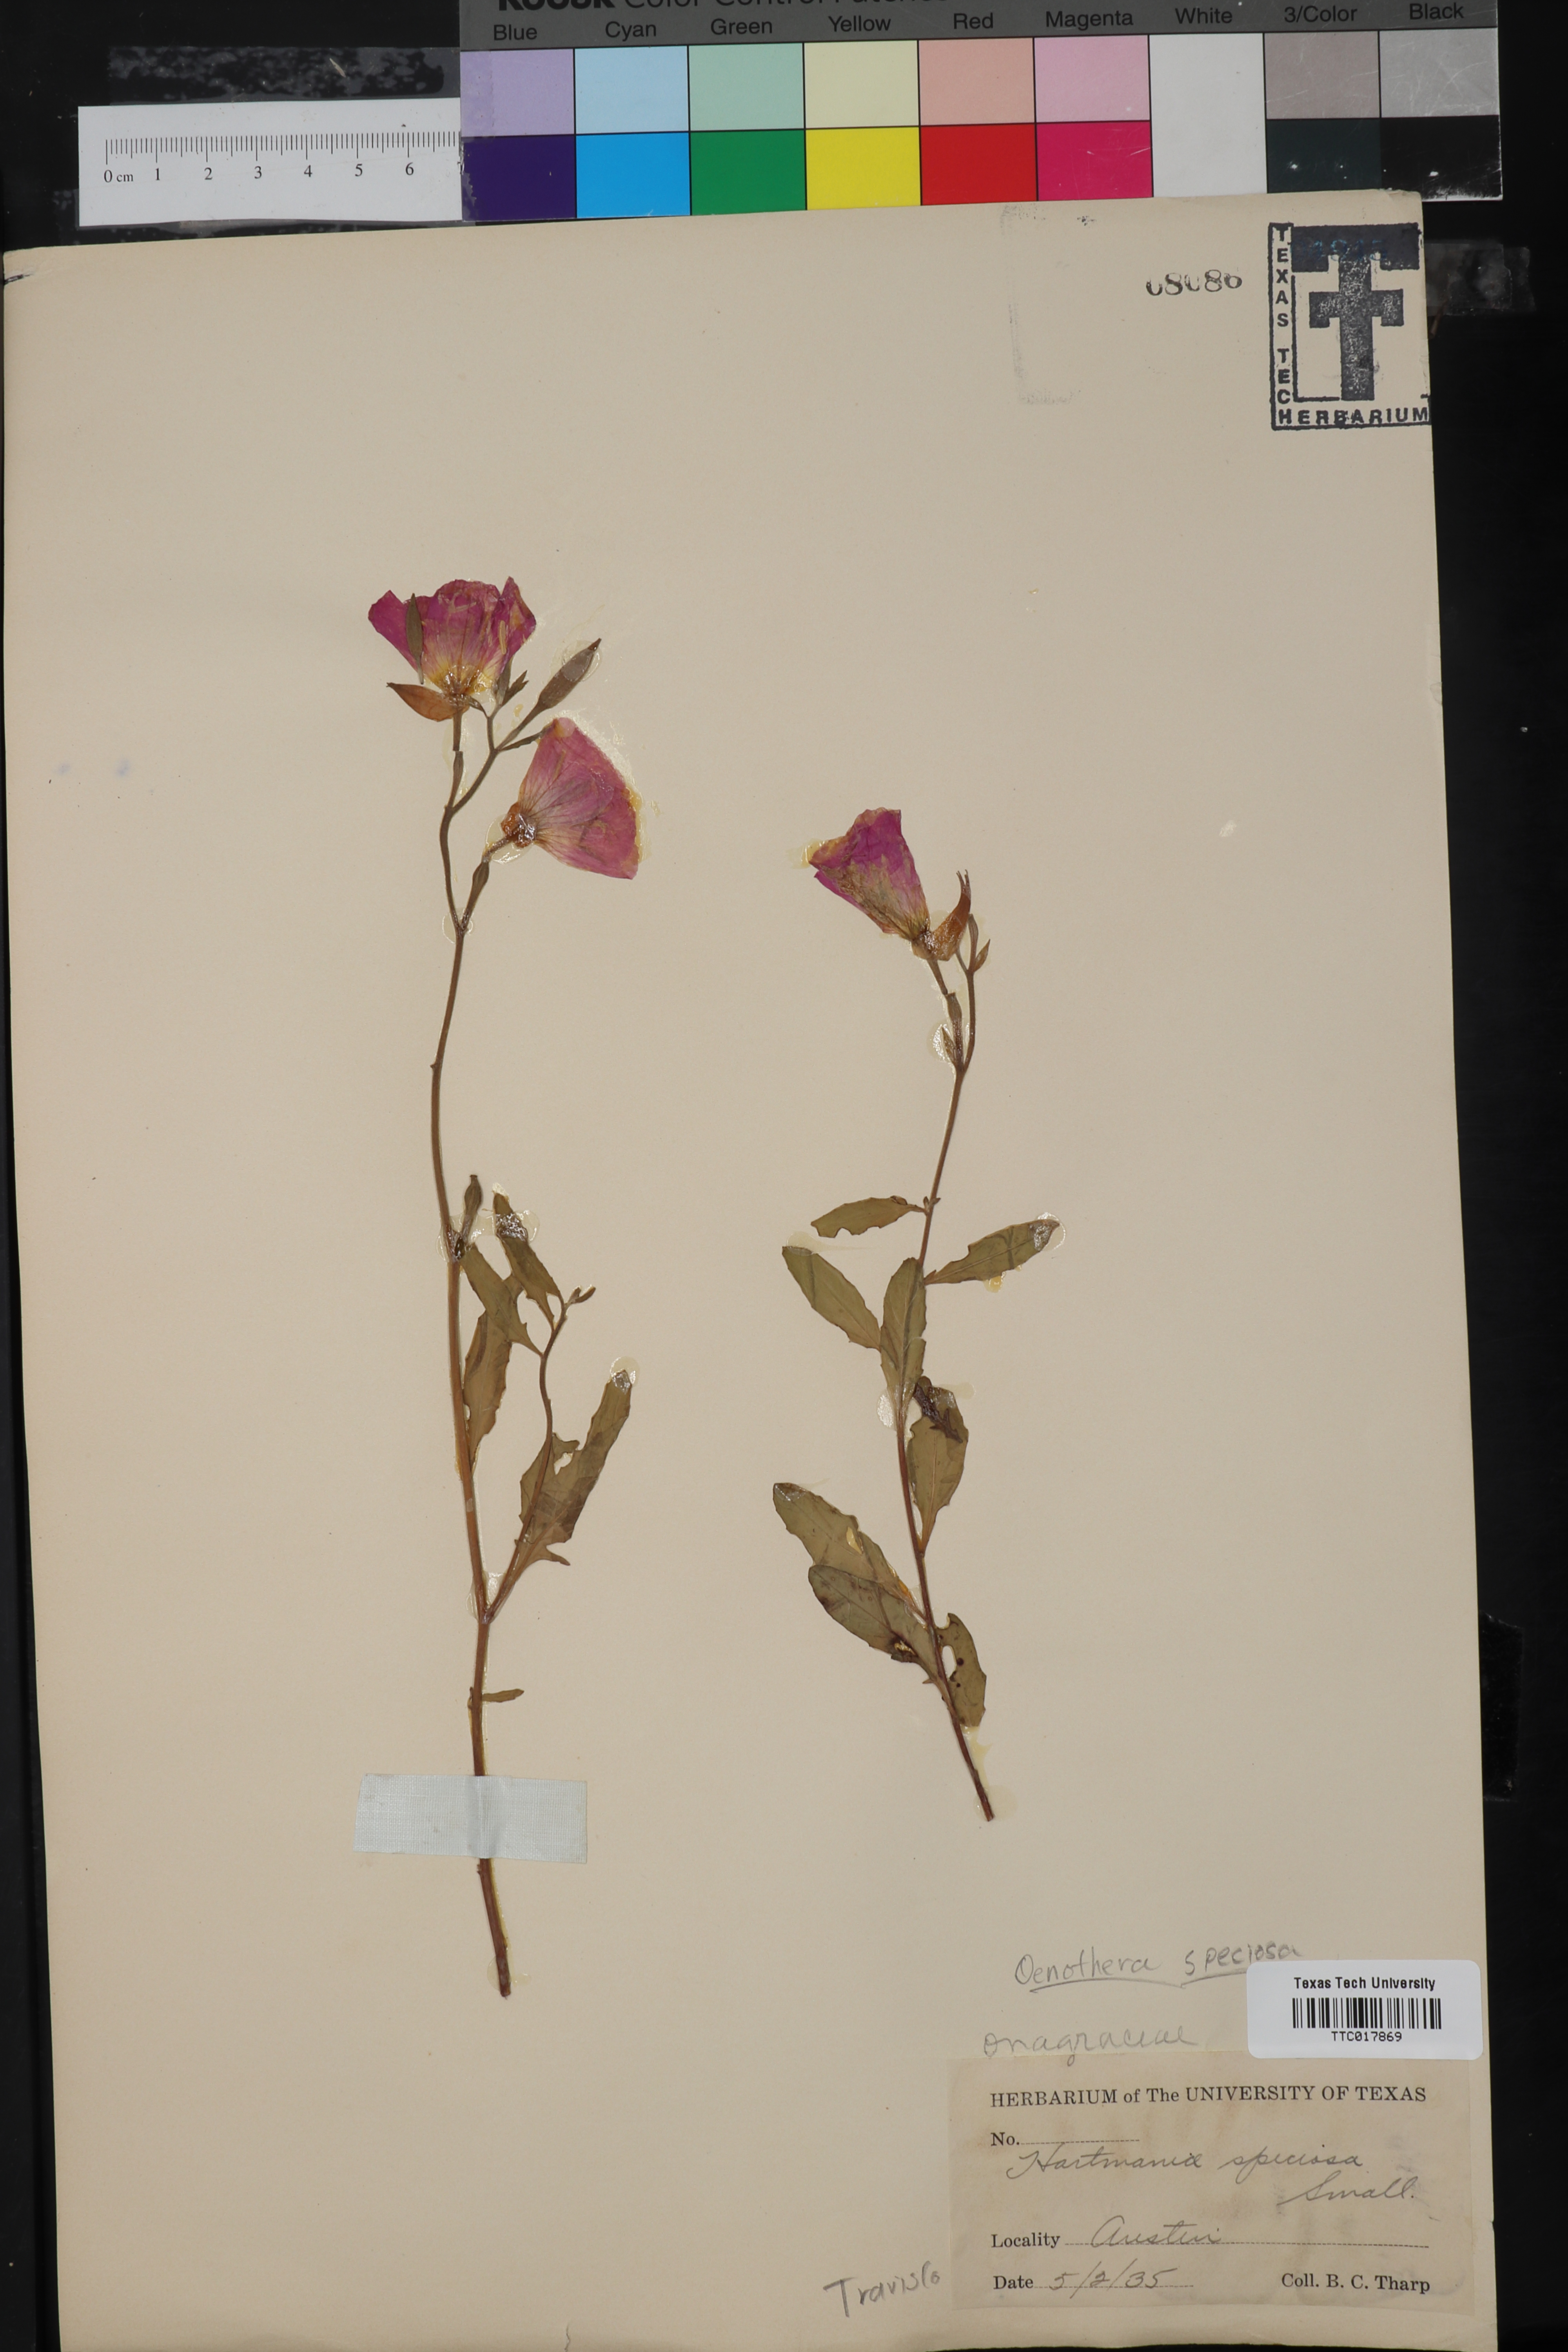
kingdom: Plantae
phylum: Tracheophyta
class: Magnoliopsida
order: Myrtales
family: Onagraceae
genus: Oenothera
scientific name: Oenothera speciosa
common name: White evening-primrose
